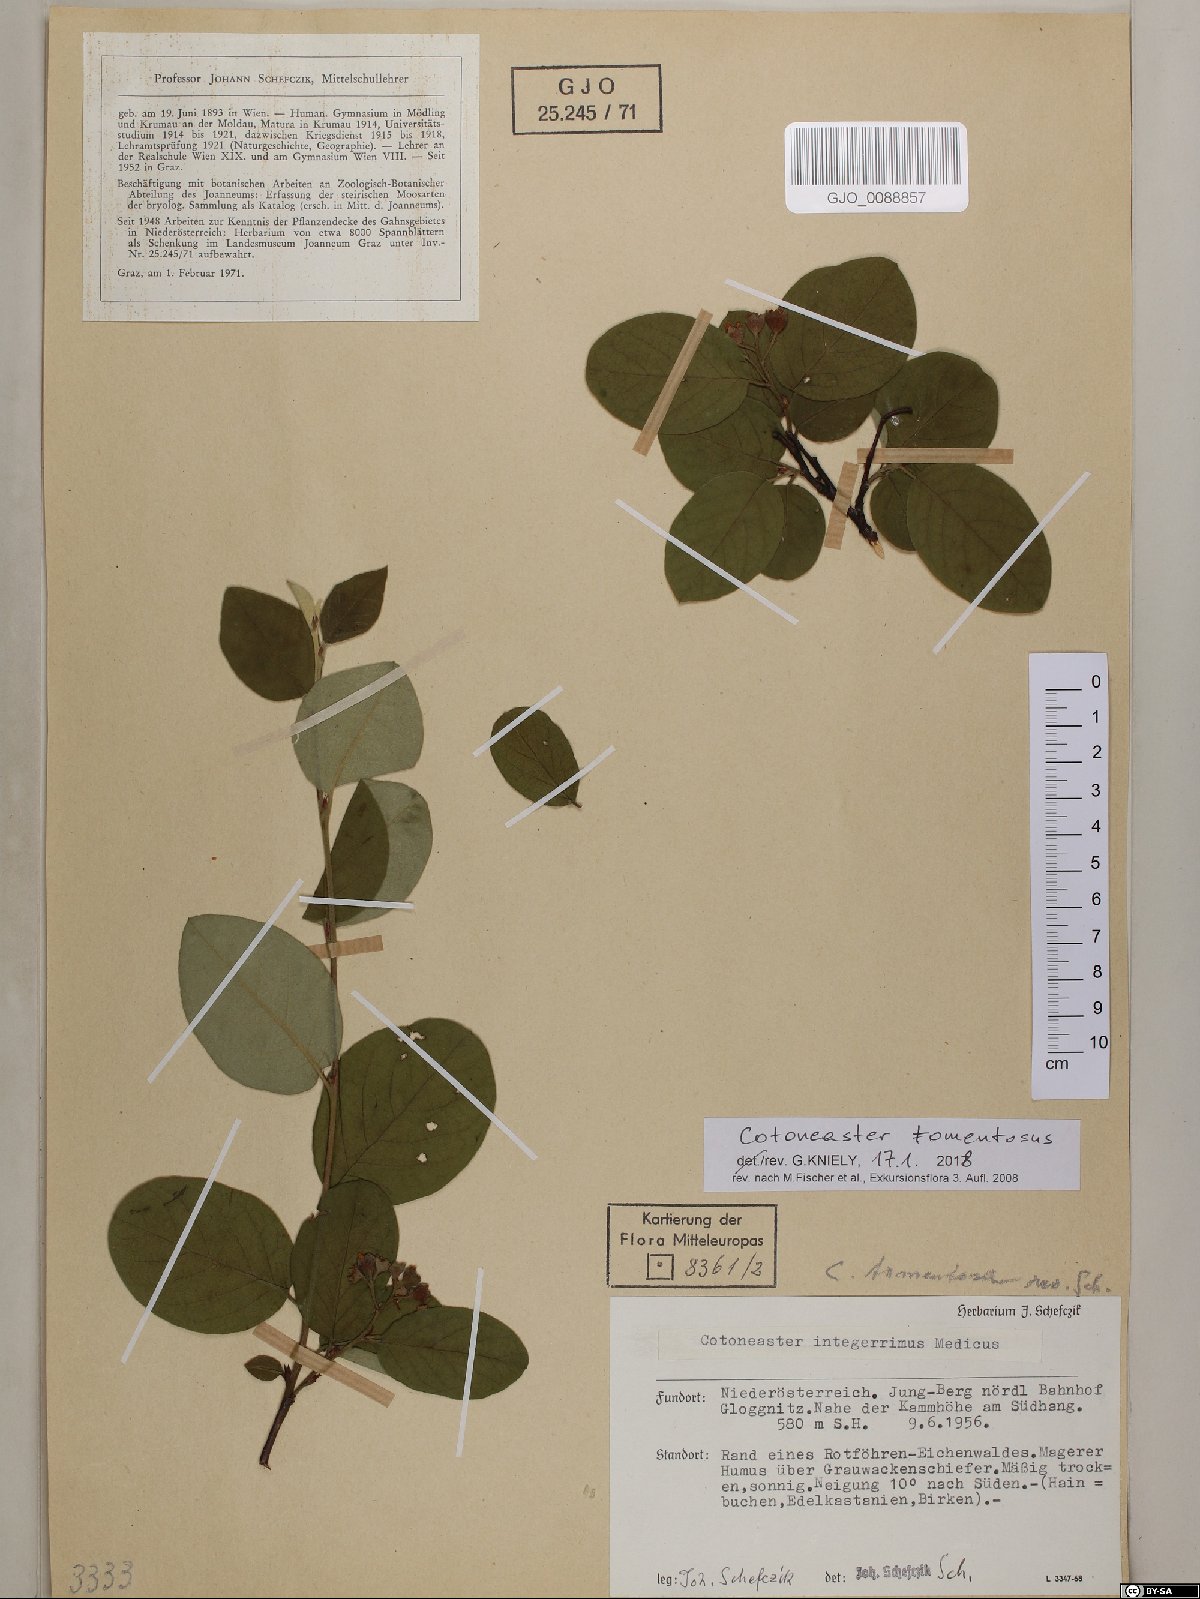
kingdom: Plantae
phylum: Tracheophyta
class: Magnoliopsida
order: Rosales
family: Rosaceae
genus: Cotoneaster
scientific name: Cotoneaster tomentosus
